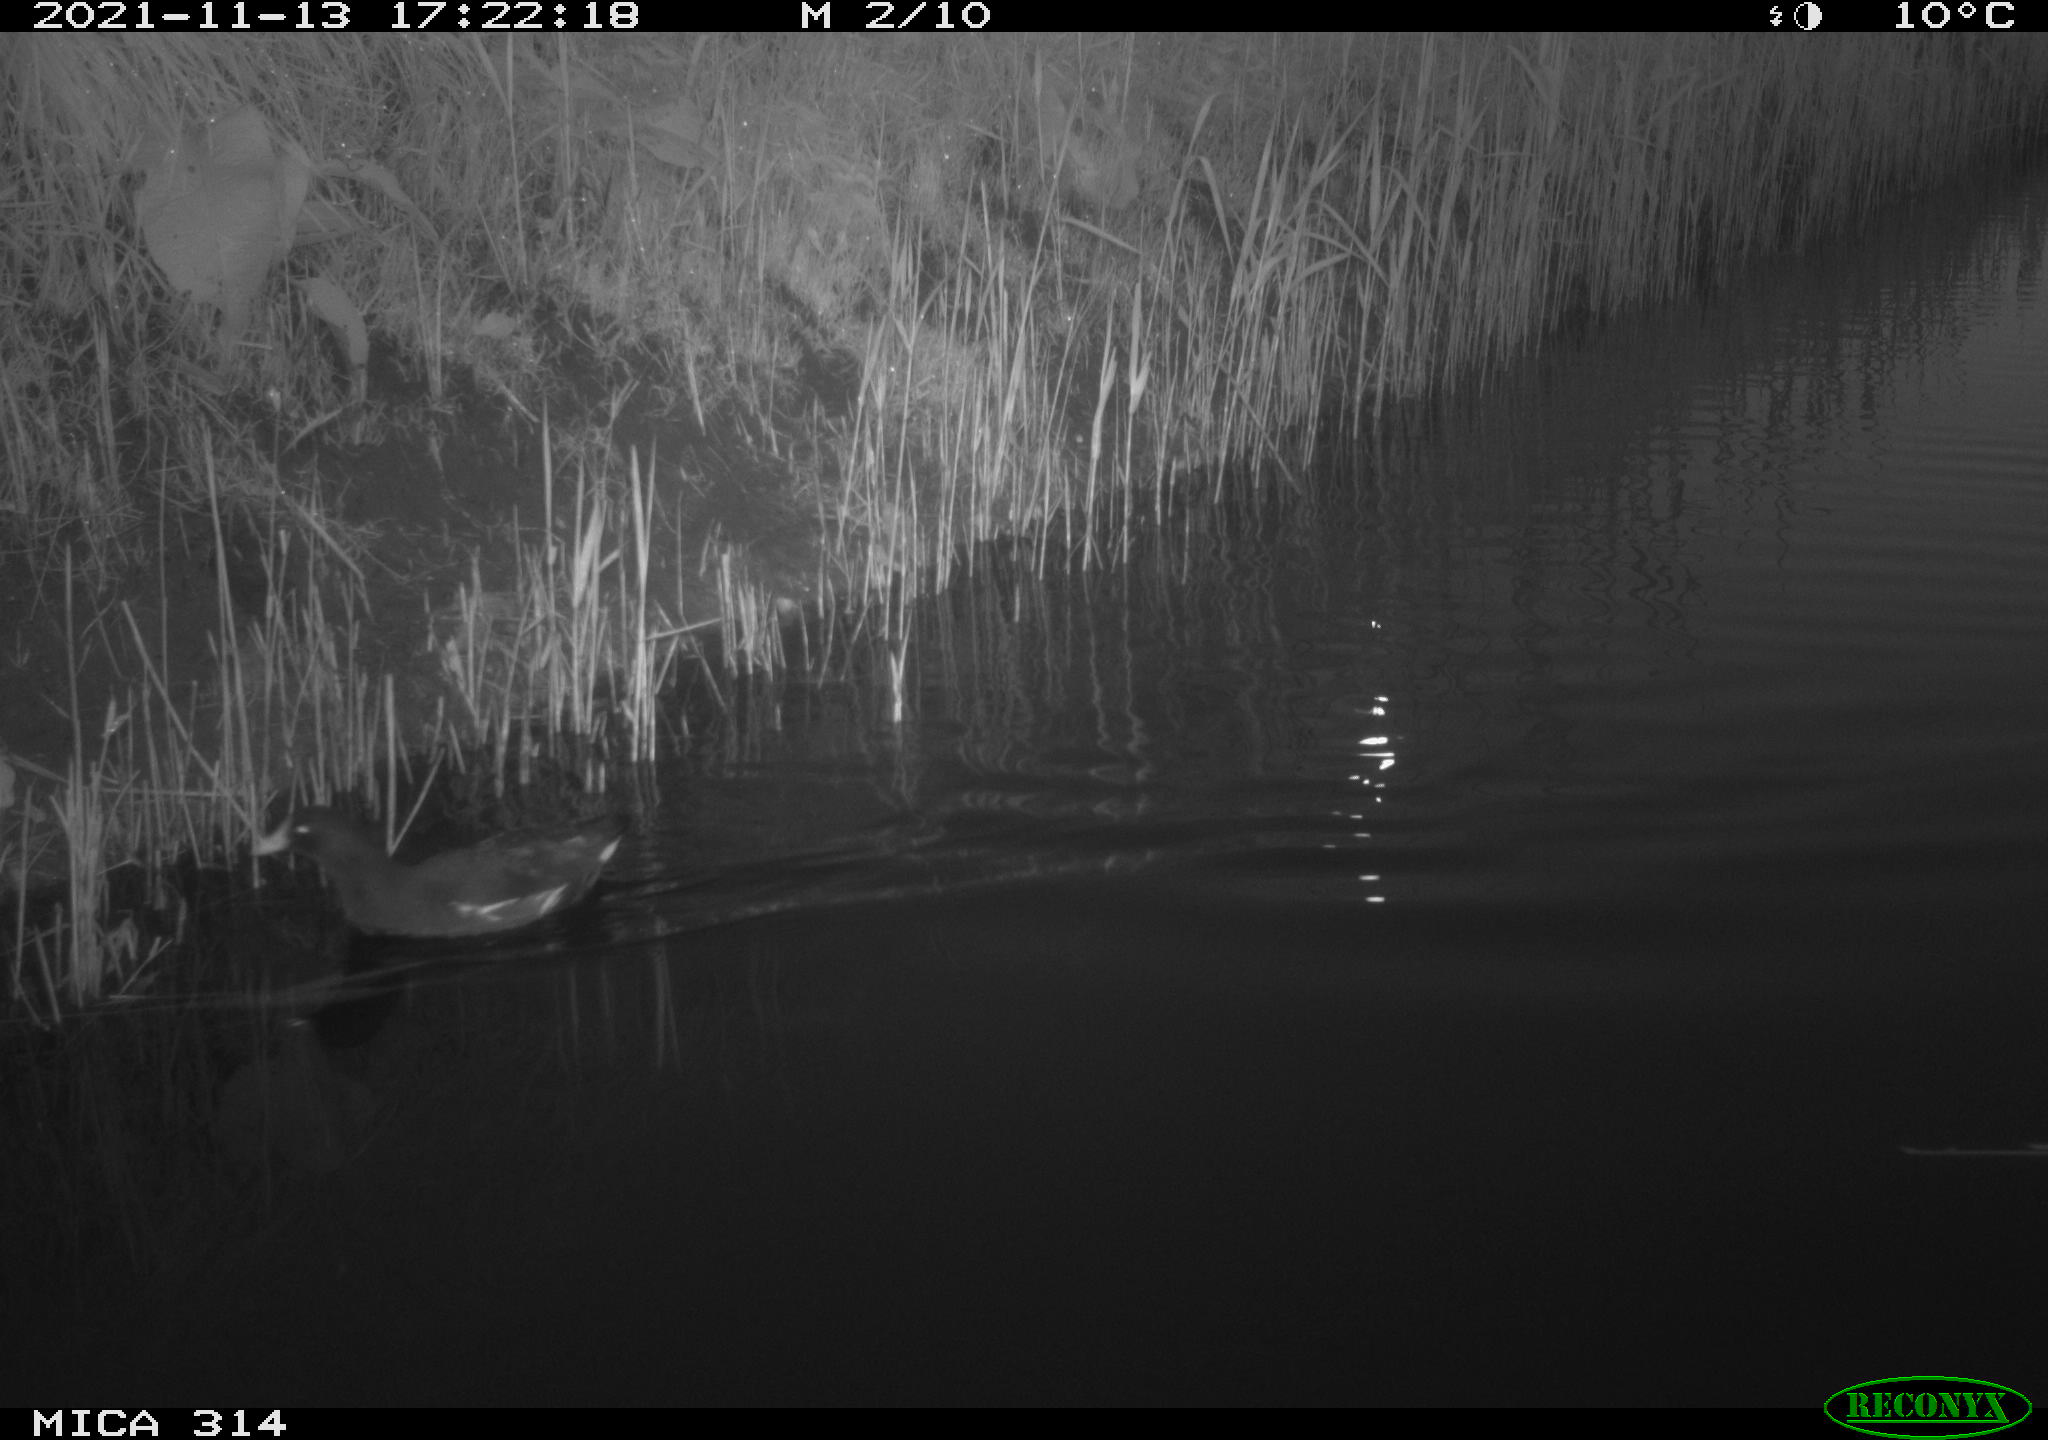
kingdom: Animalia
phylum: Chordata
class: Aves
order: Gruiformes
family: Rallidae
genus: Gallinula
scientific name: Gallinula chloropus
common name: Common moorhen
